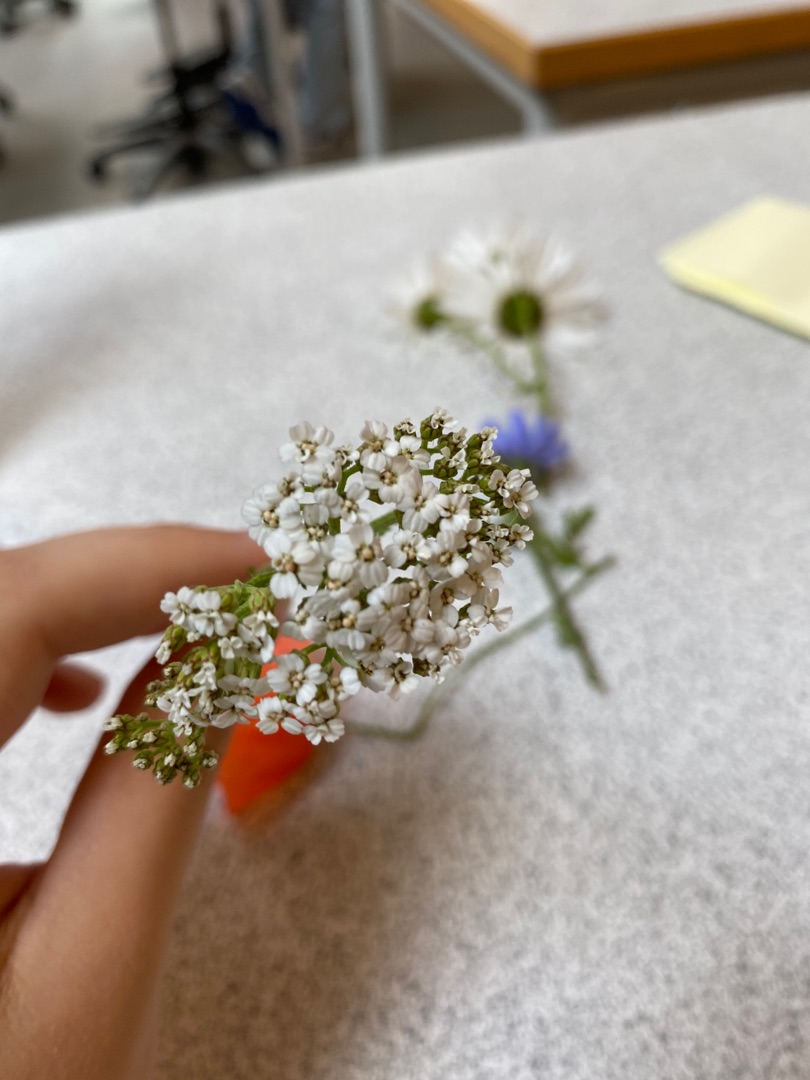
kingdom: Plantae
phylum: Tracheophyta
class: Magnoliopsida
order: Asterales
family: Asteraceae
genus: Achillea
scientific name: Achillea millefolium
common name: Almindelig røllike
